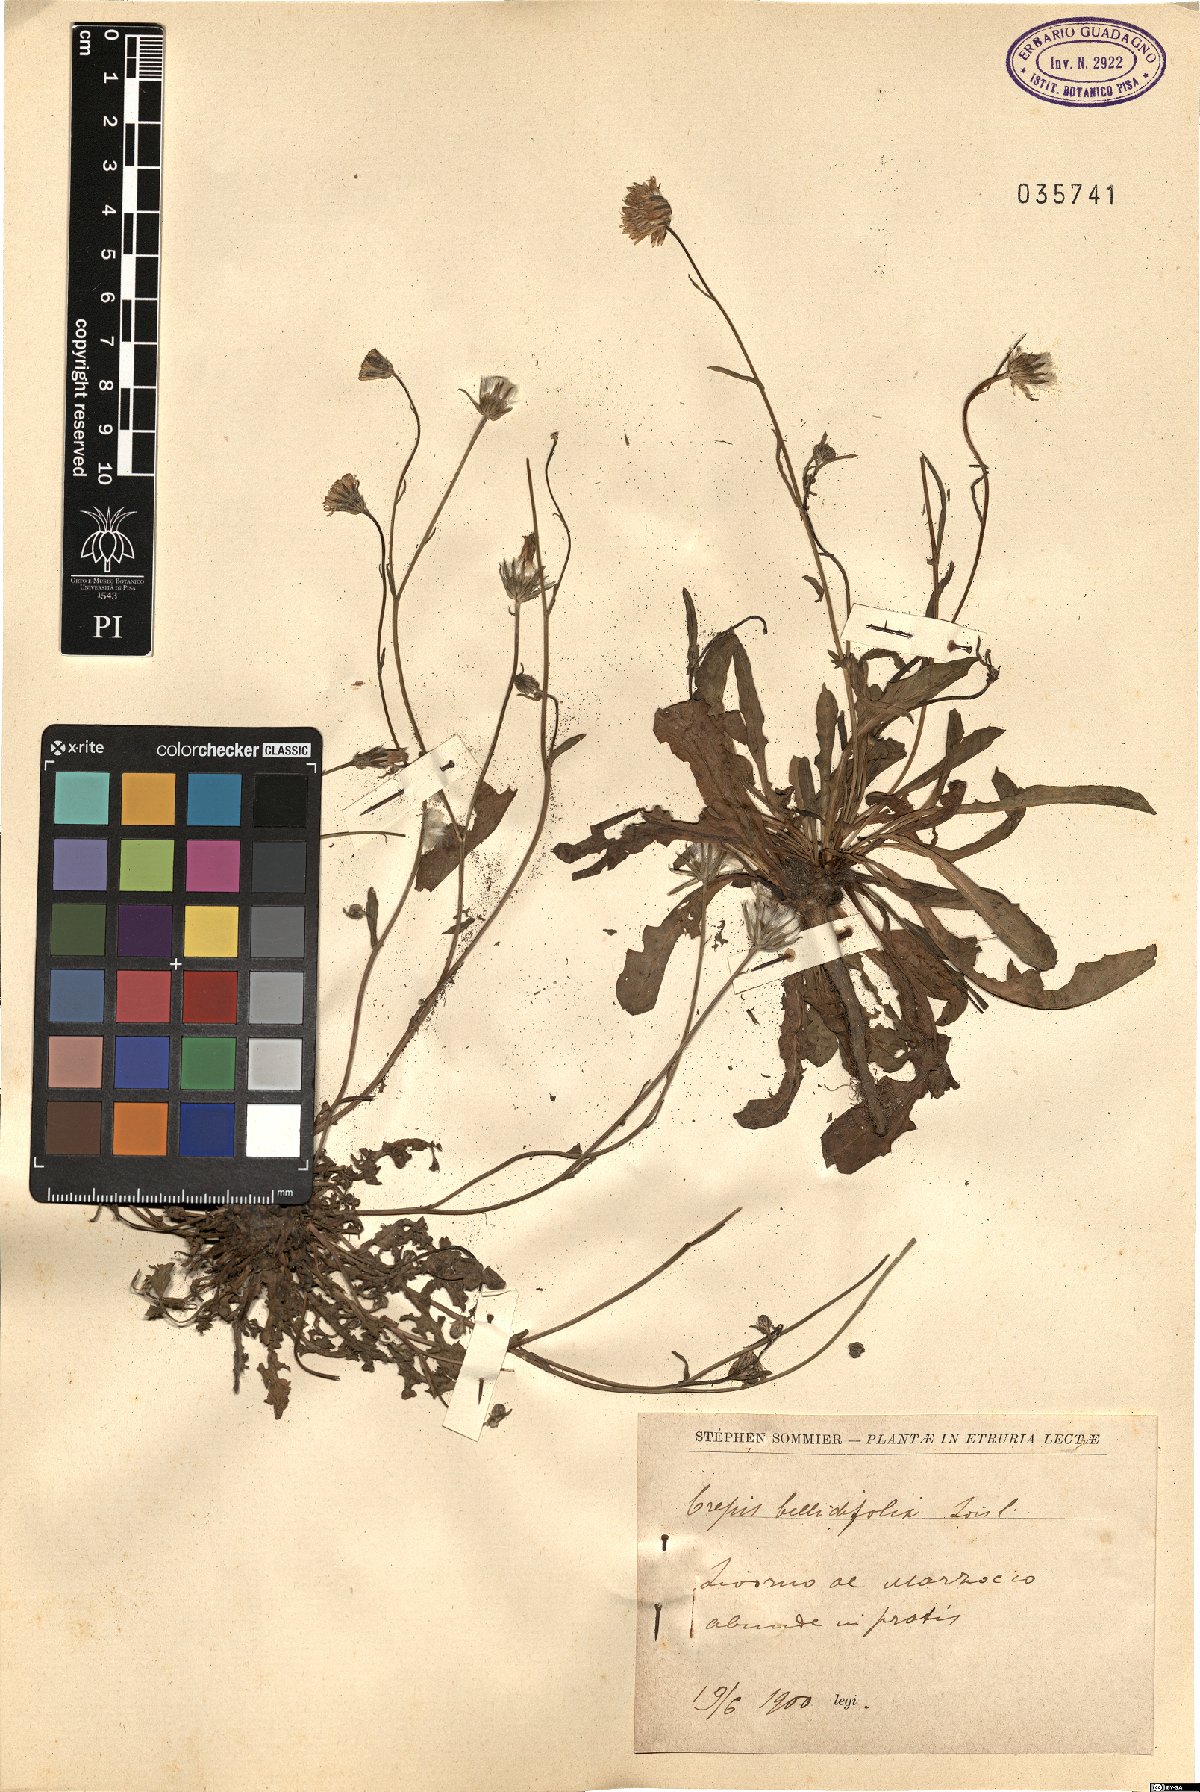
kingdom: Plantae
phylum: Tracheophyta
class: Magnoliopsida
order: Asterales
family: Asteraceae
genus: Crepis
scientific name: Crepis bellidifolia
